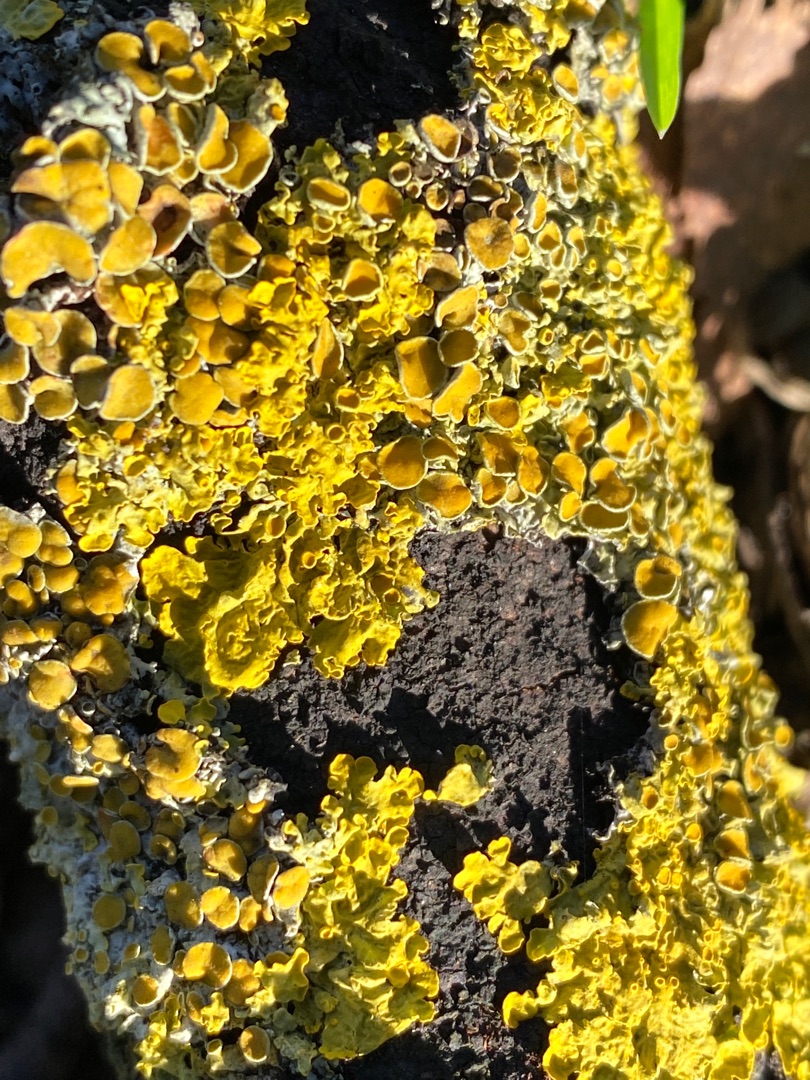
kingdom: Fungi
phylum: Ascomycota
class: Lecanoromycetes
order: Teloschistales
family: Teloschistaceae
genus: Xanthoria
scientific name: Xanthoria parietina
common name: Almindelig væggelav
